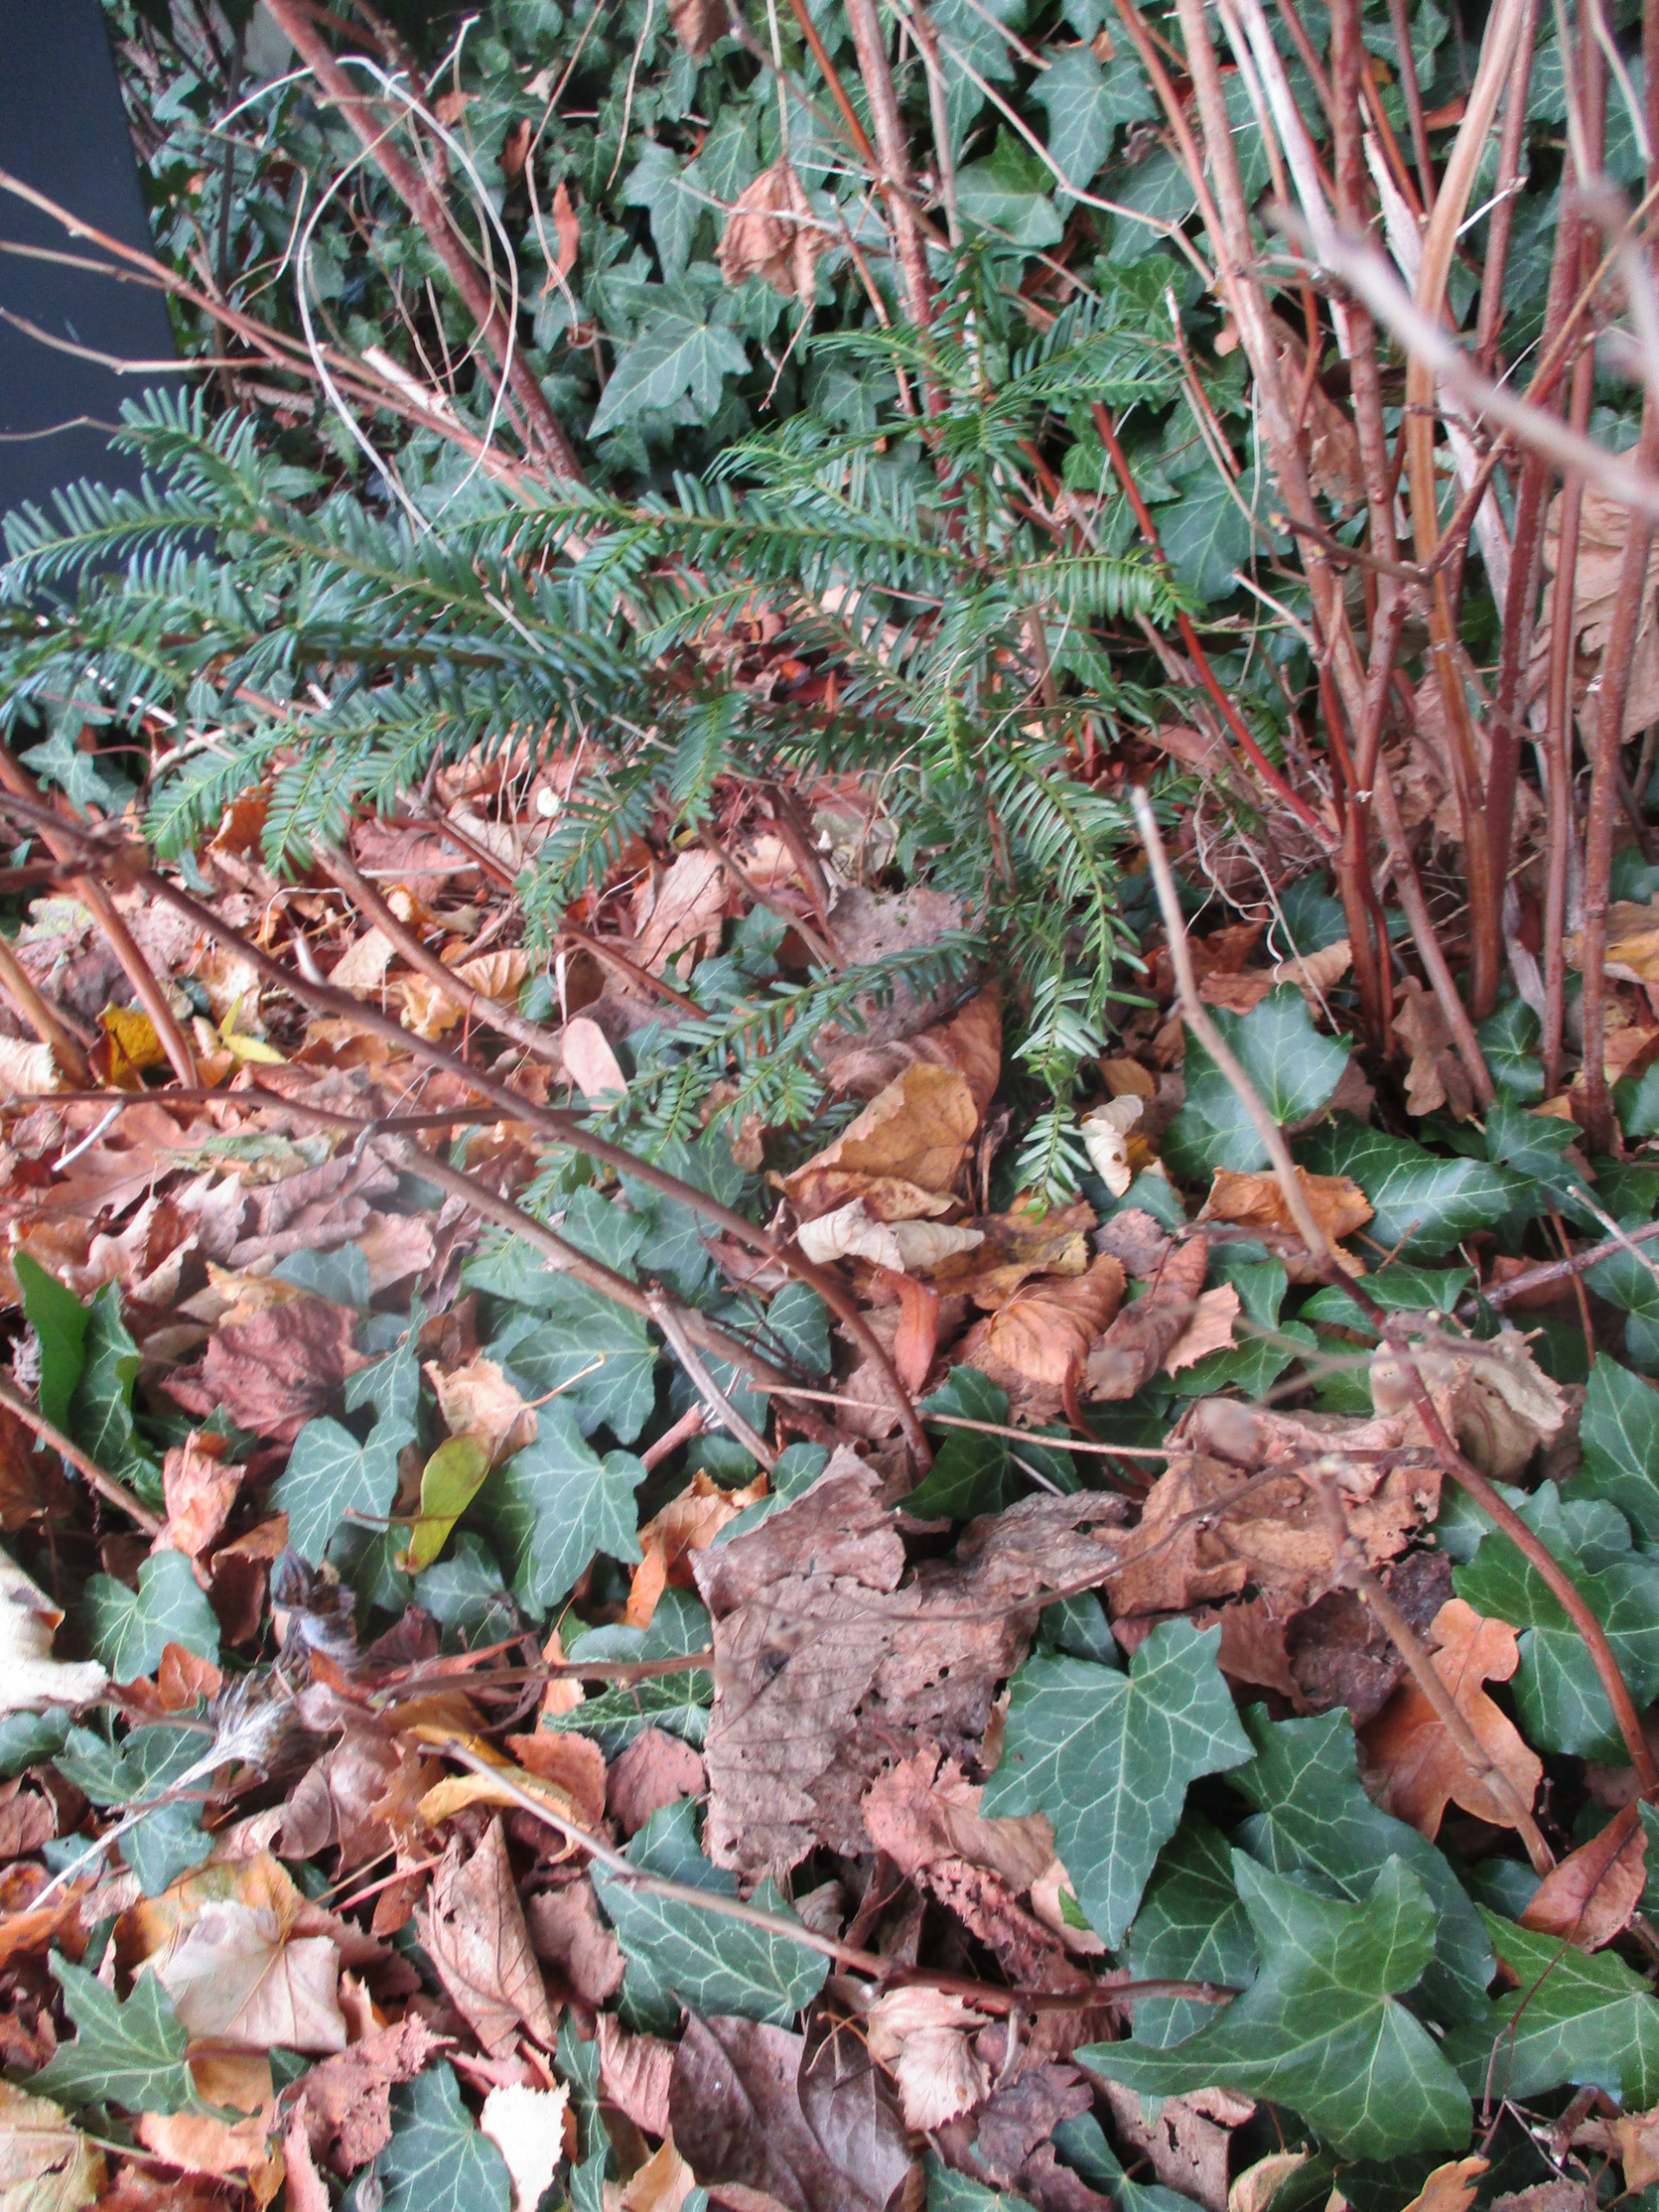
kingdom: Plantae
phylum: Tracheophyta
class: Pinopsida
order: Pinales
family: Taxaceae
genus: Taxus
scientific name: Taxus baccata
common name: Almindelig taks
